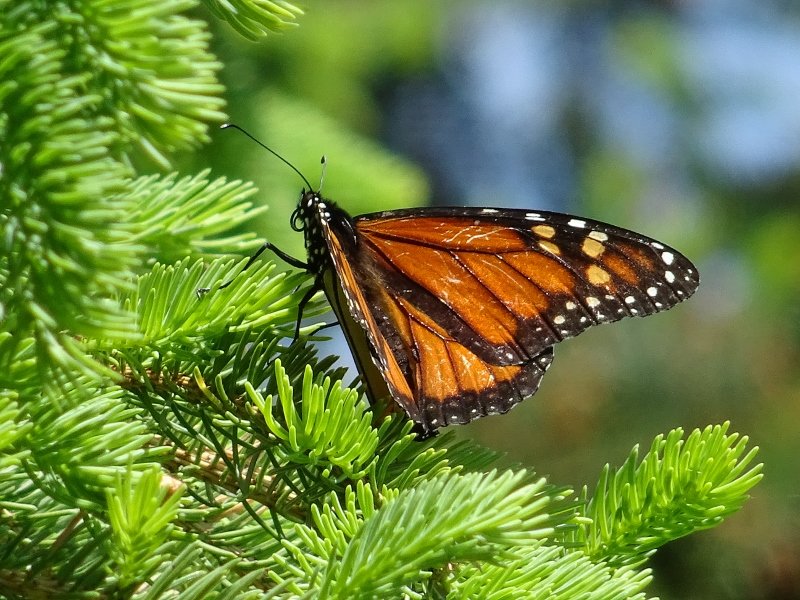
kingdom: Animalia
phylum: Arthropoda
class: Insecta
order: Lepidoptera
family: Nymphalidae
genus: Danaus
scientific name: Danaus plexippus
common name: Monarch
